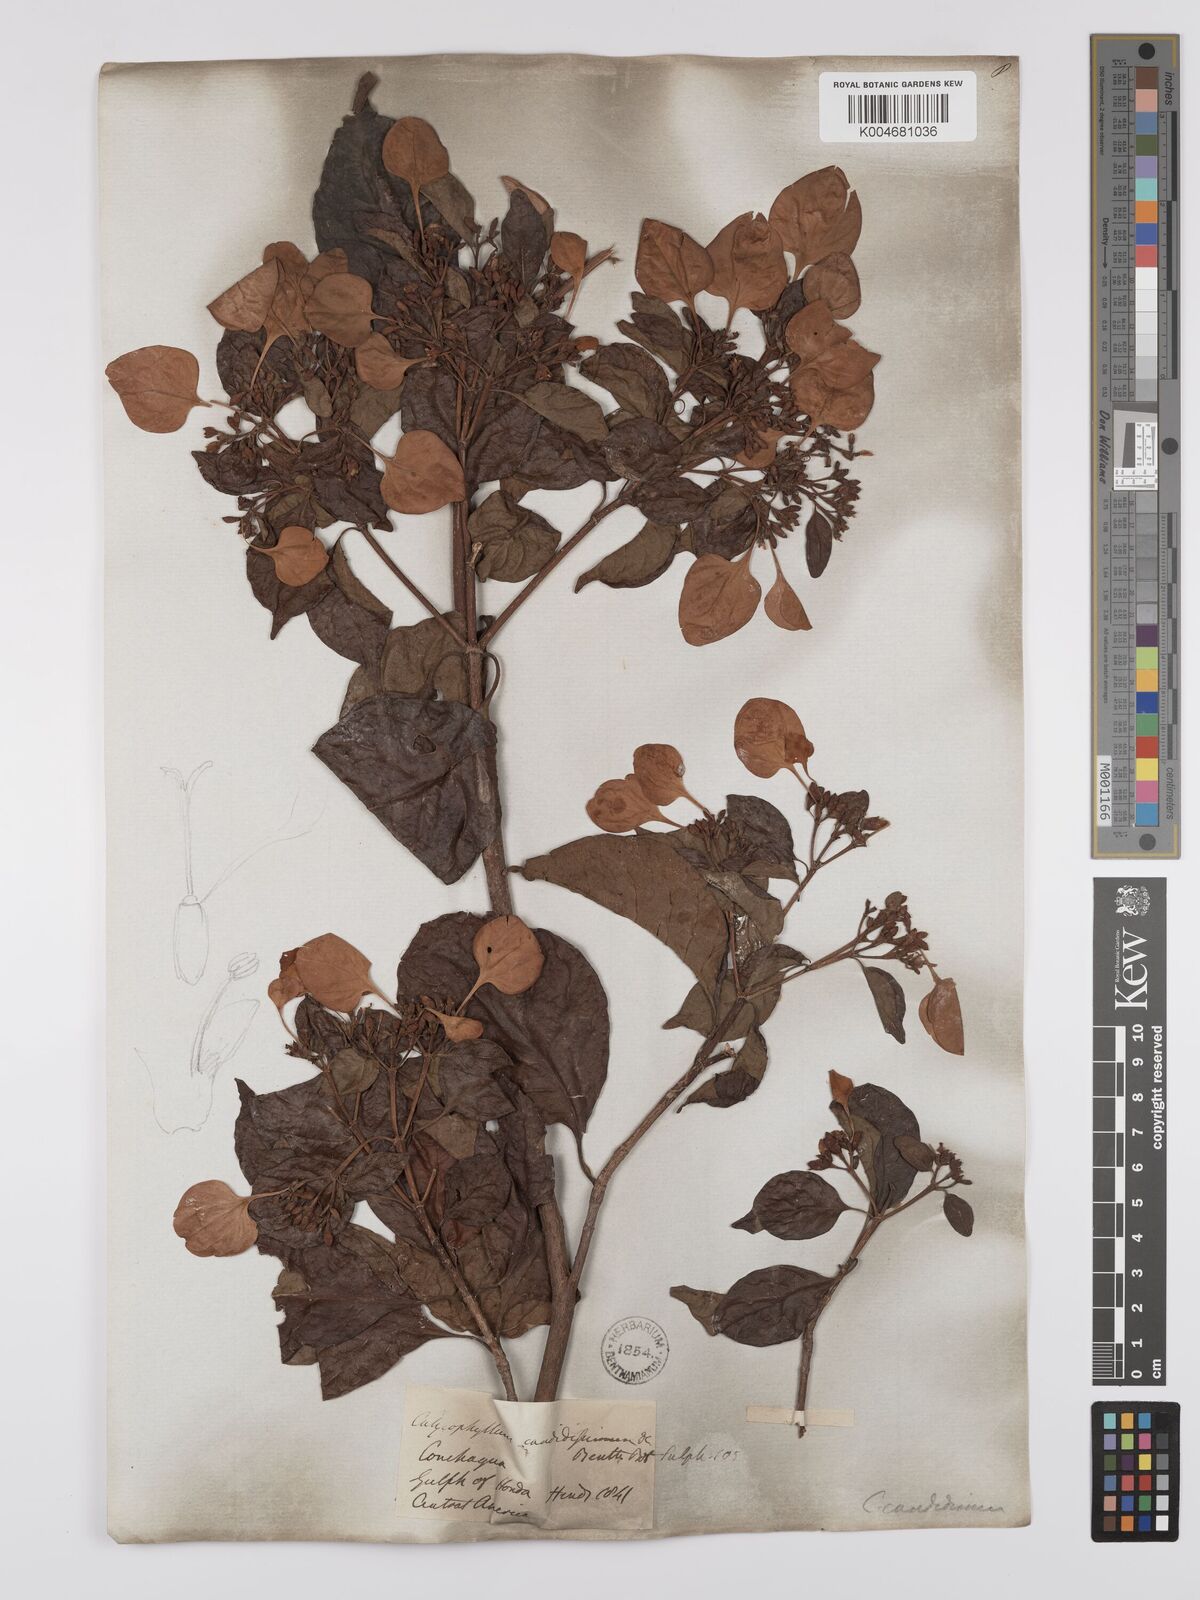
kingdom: Plantae
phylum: Tracheophyta
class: Magnoliopsida
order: Gentianales
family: Rubiaceae
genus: Calycophyllum
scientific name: Calycophyllum candidissimum
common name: Dagame
